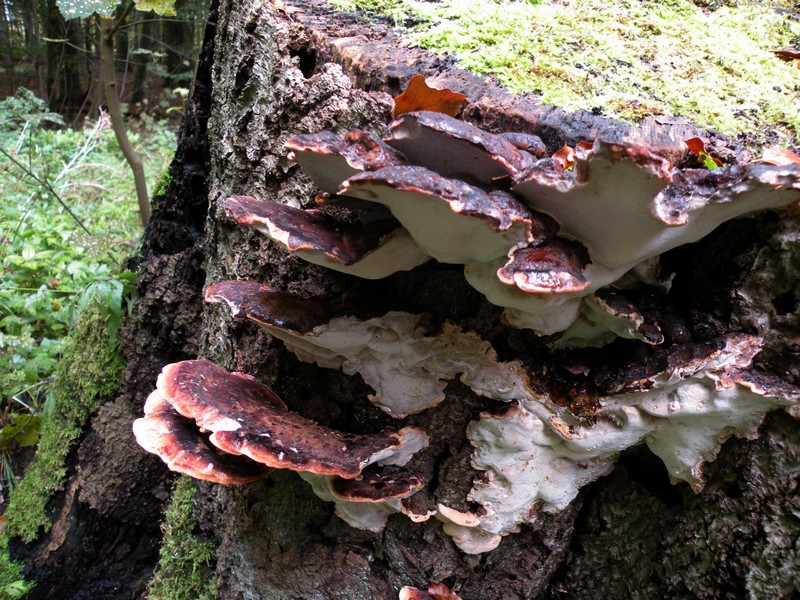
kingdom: Fungi
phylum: Basidiomycota
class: Agaricomycetes
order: Polyporales
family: Ischnodermataceae
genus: Ischnoderma
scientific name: Ischnoderma resinosum
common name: løv-tjæreporesvamp
